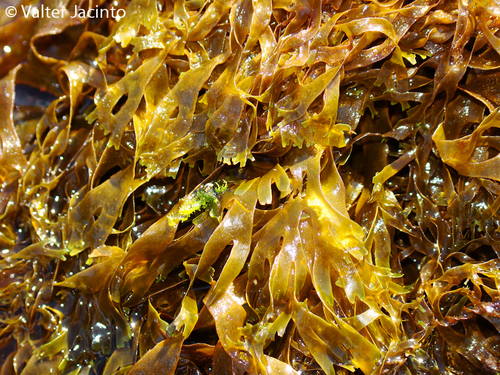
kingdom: Chromista
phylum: Ochrophyta
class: Phaeophyceae
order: Dictyotales
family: Dictyotaceae
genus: Dictyota
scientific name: Dictyota dichotoma
